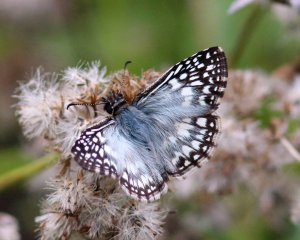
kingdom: Animalia
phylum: Arthropoda
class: Insecta
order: Lepidoptera
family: Hesperiidae
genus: Pyrgus
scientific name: Pyrgus oileus
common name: Tropical Checkered-Skipper
